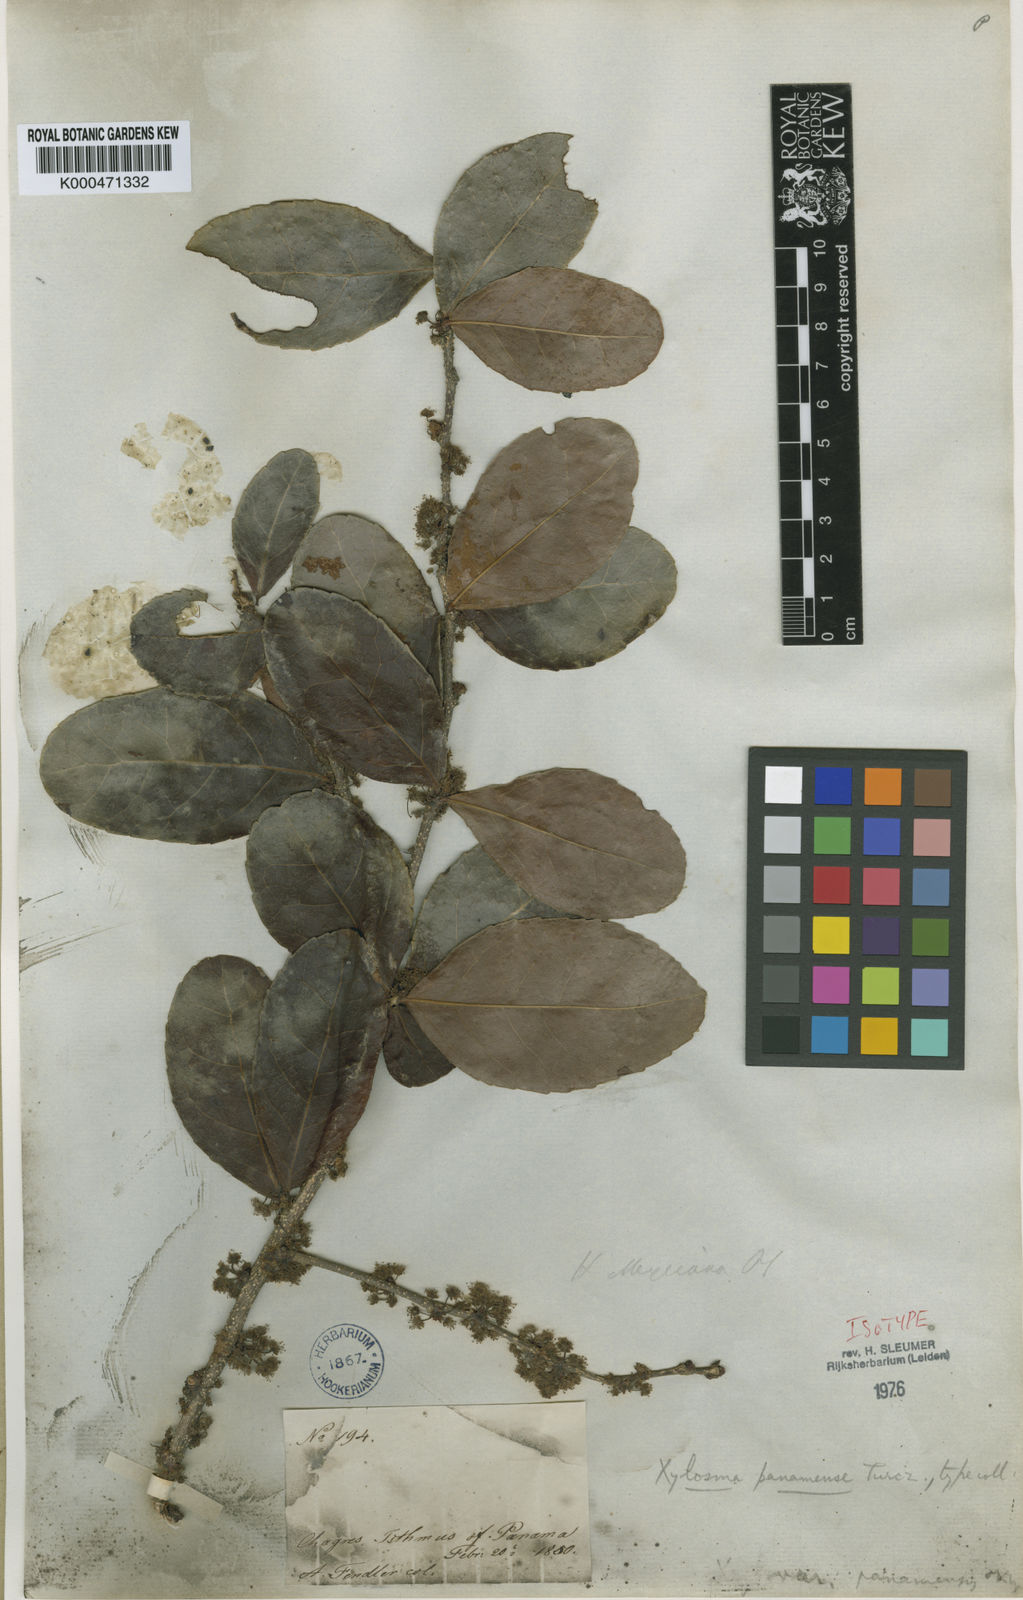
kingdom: Plantae
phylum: Tracheophyta
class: Magnoliopsida
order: Malpighiales
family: Salicaceae
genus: Xylosma
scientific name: Xylosma intermedia
